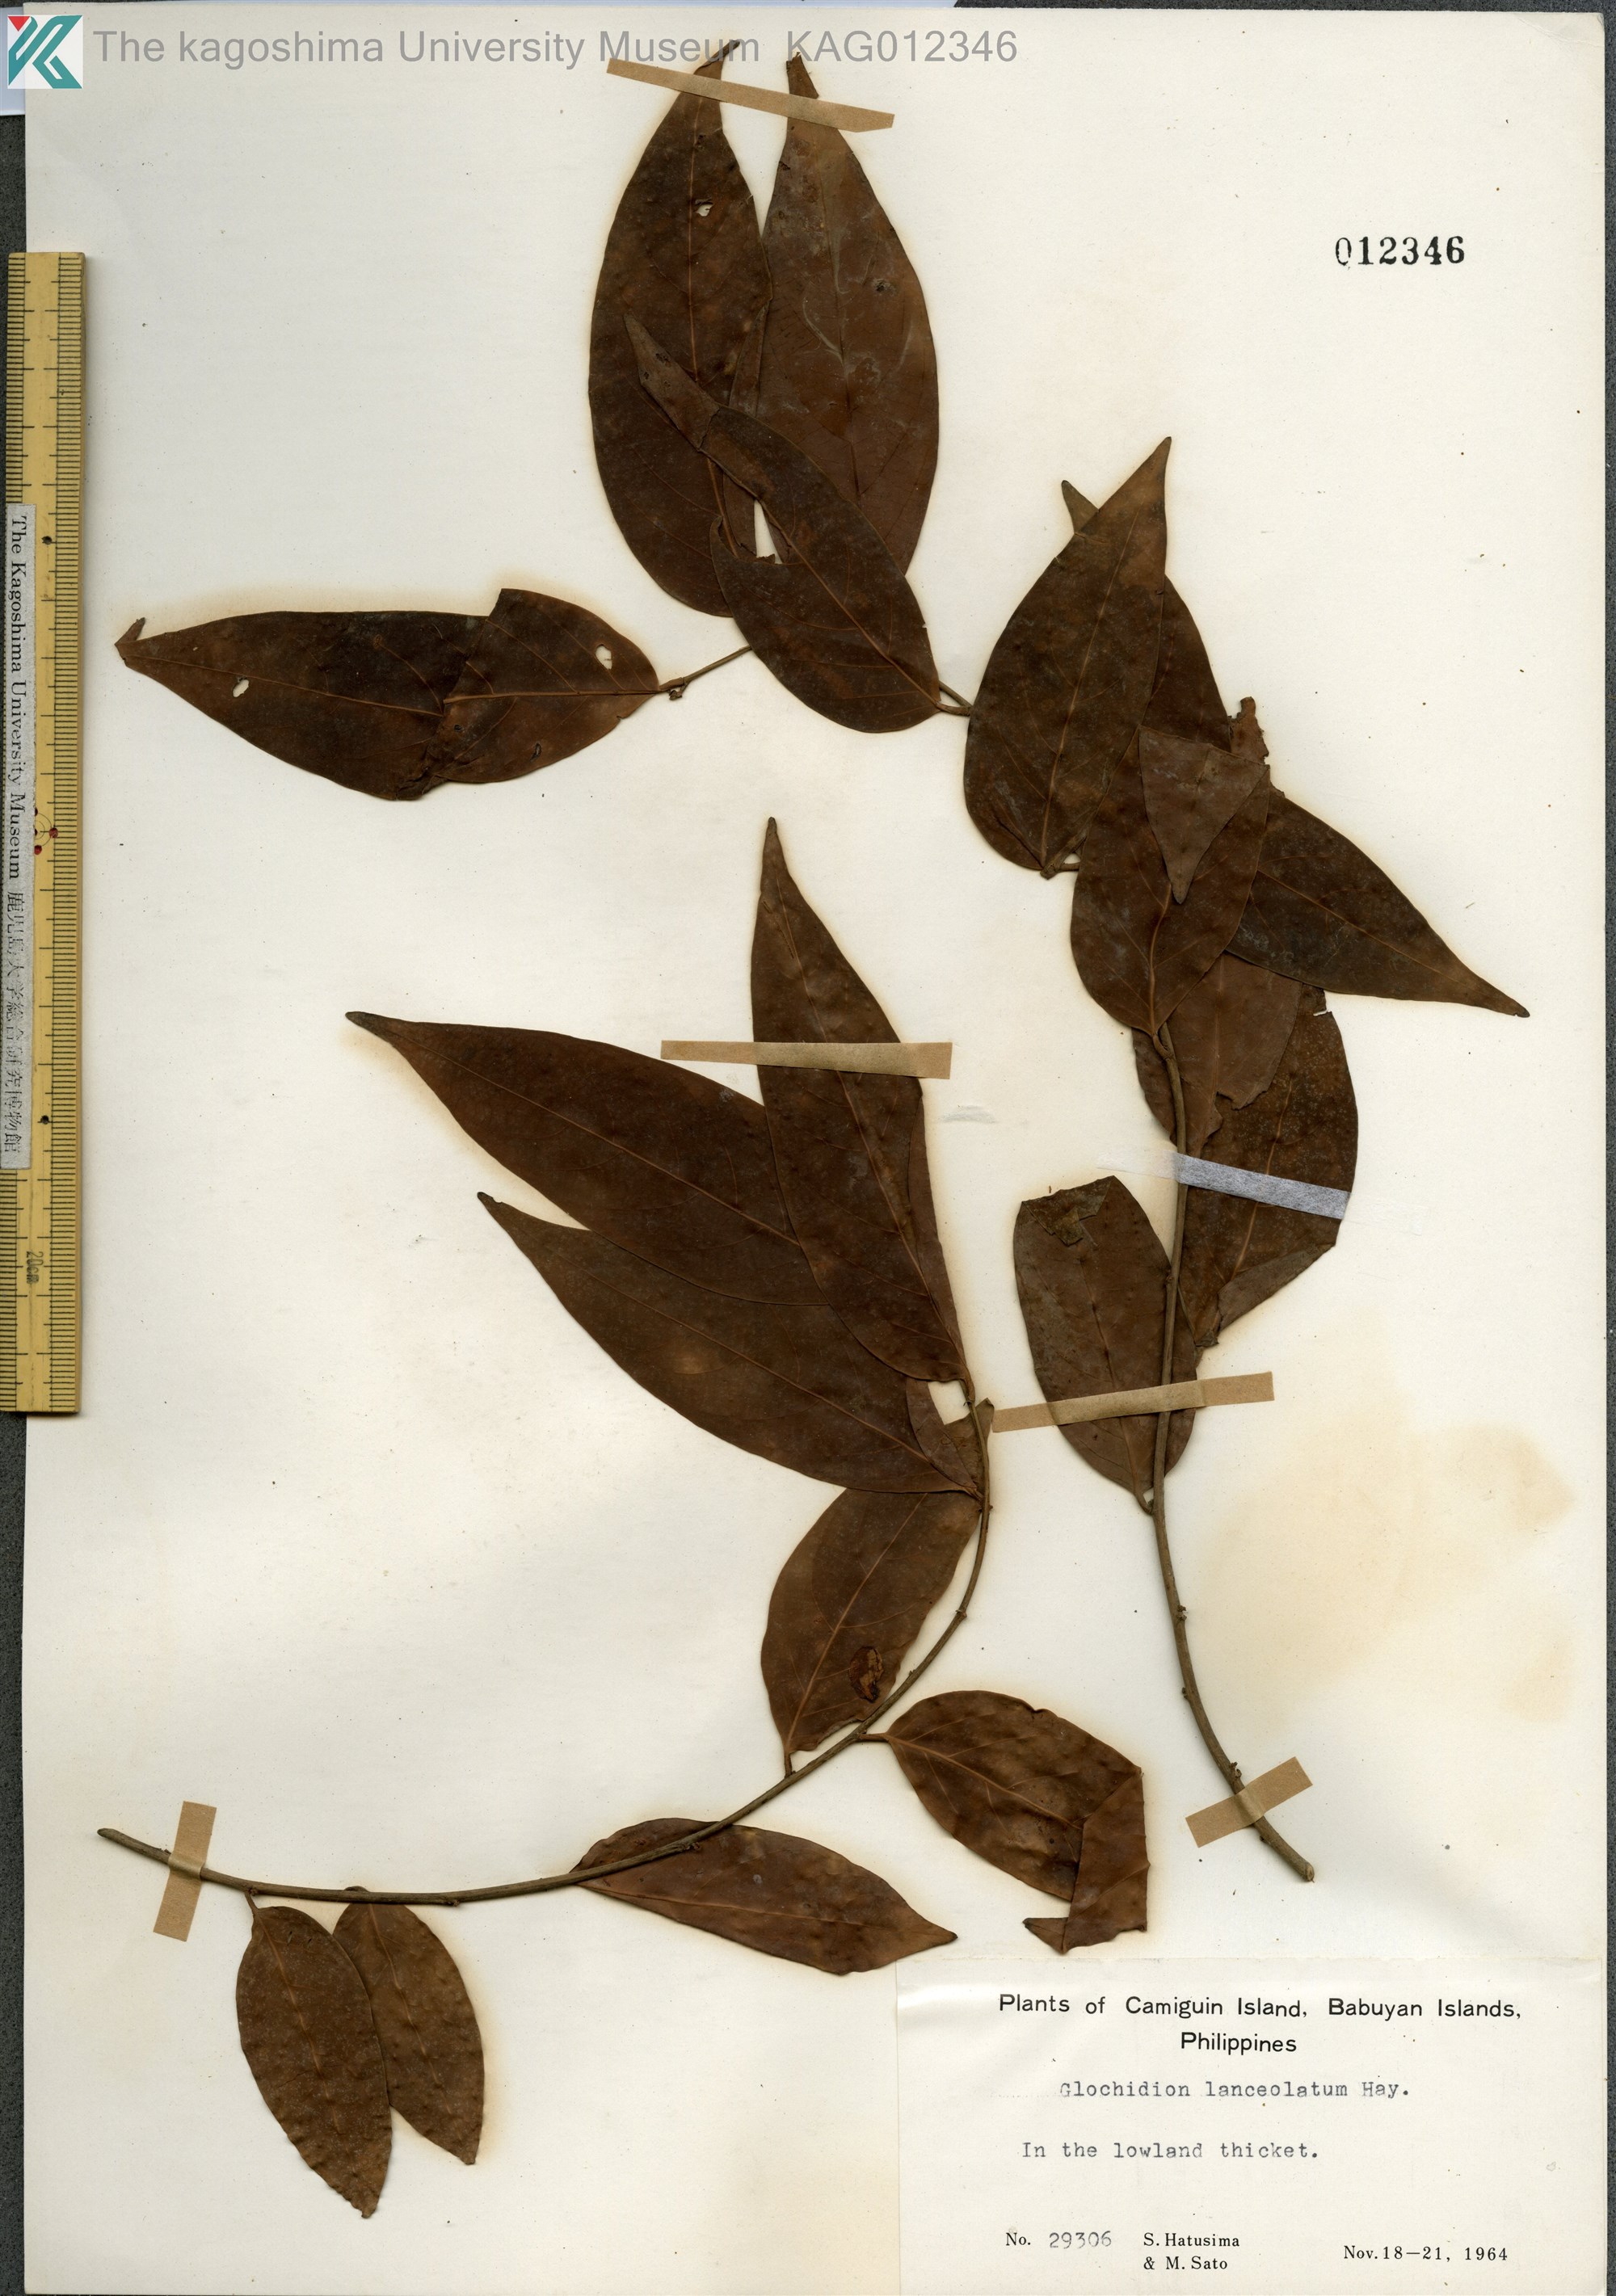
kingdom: Plantae
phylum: Tracheophyta
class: Magnoliopsida
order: Malpighiales
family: Phyllanthaceae
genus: Glochidion
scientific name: Glochidion lanceolatum
